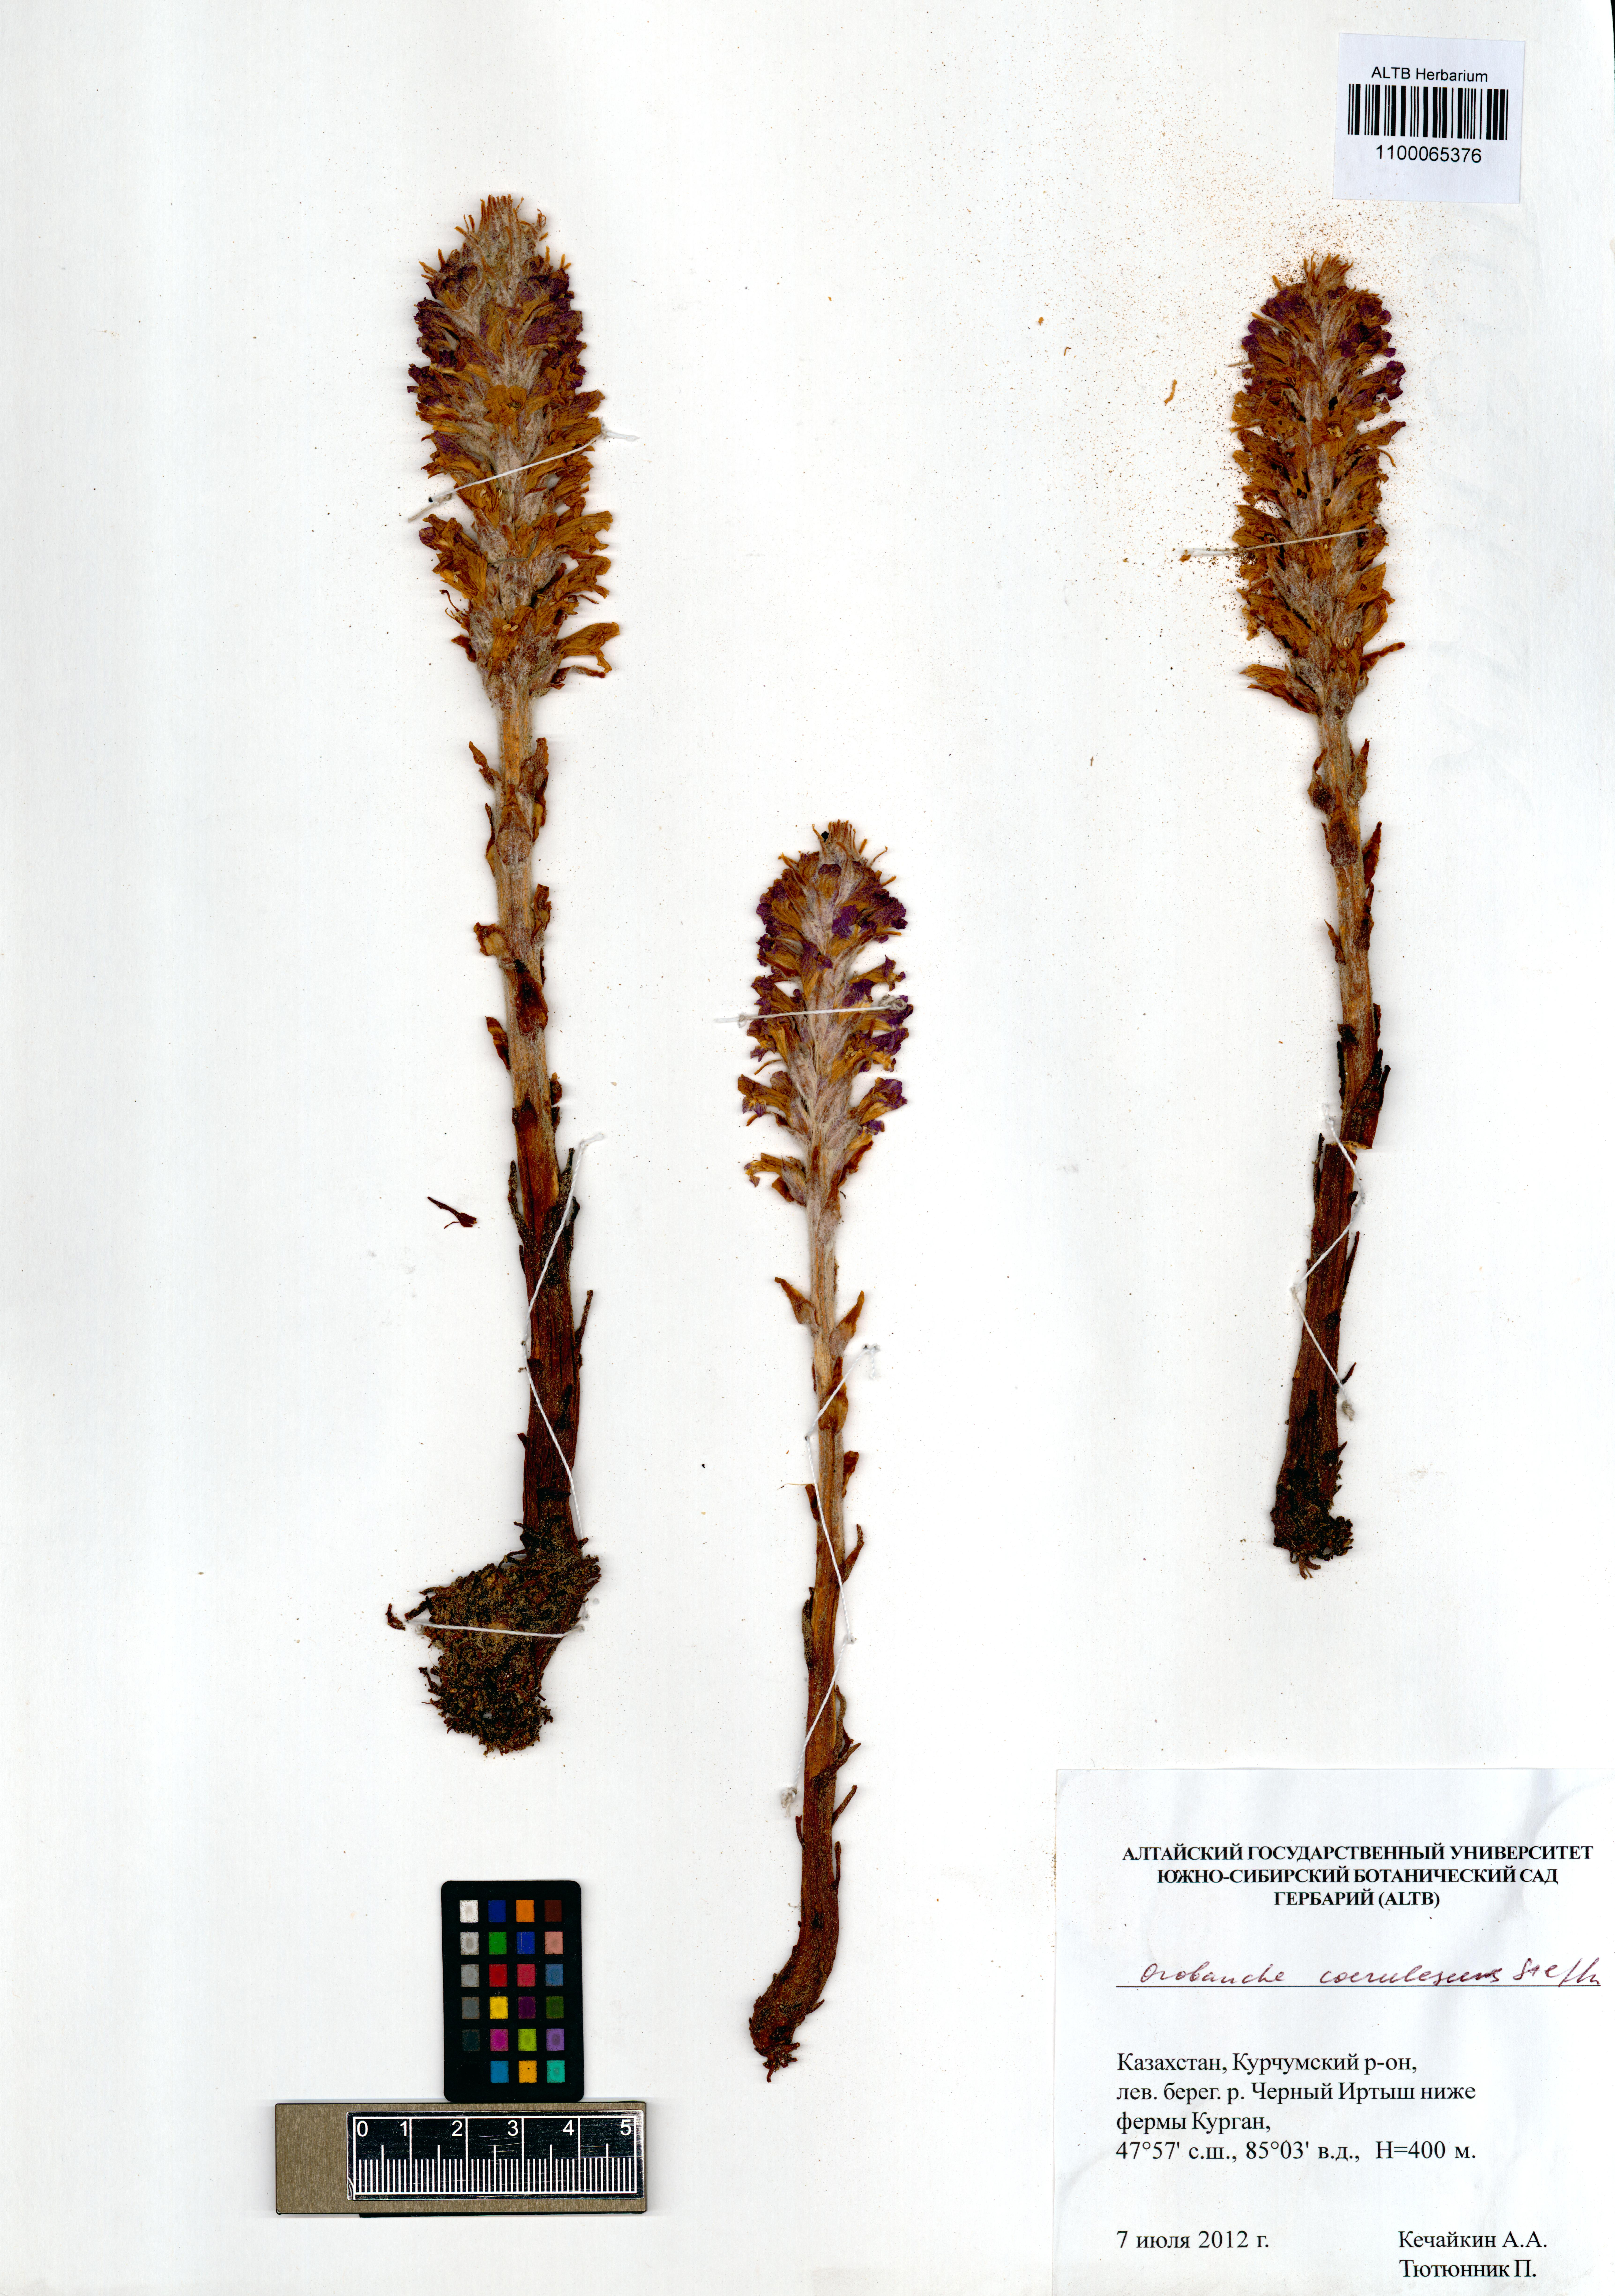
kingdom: Plantae
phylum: Tracheophyta
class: Magnoliopsida
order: Lamiales
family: Orobanchaceae
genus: Orobanche
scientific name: Orobanche coerulescens
